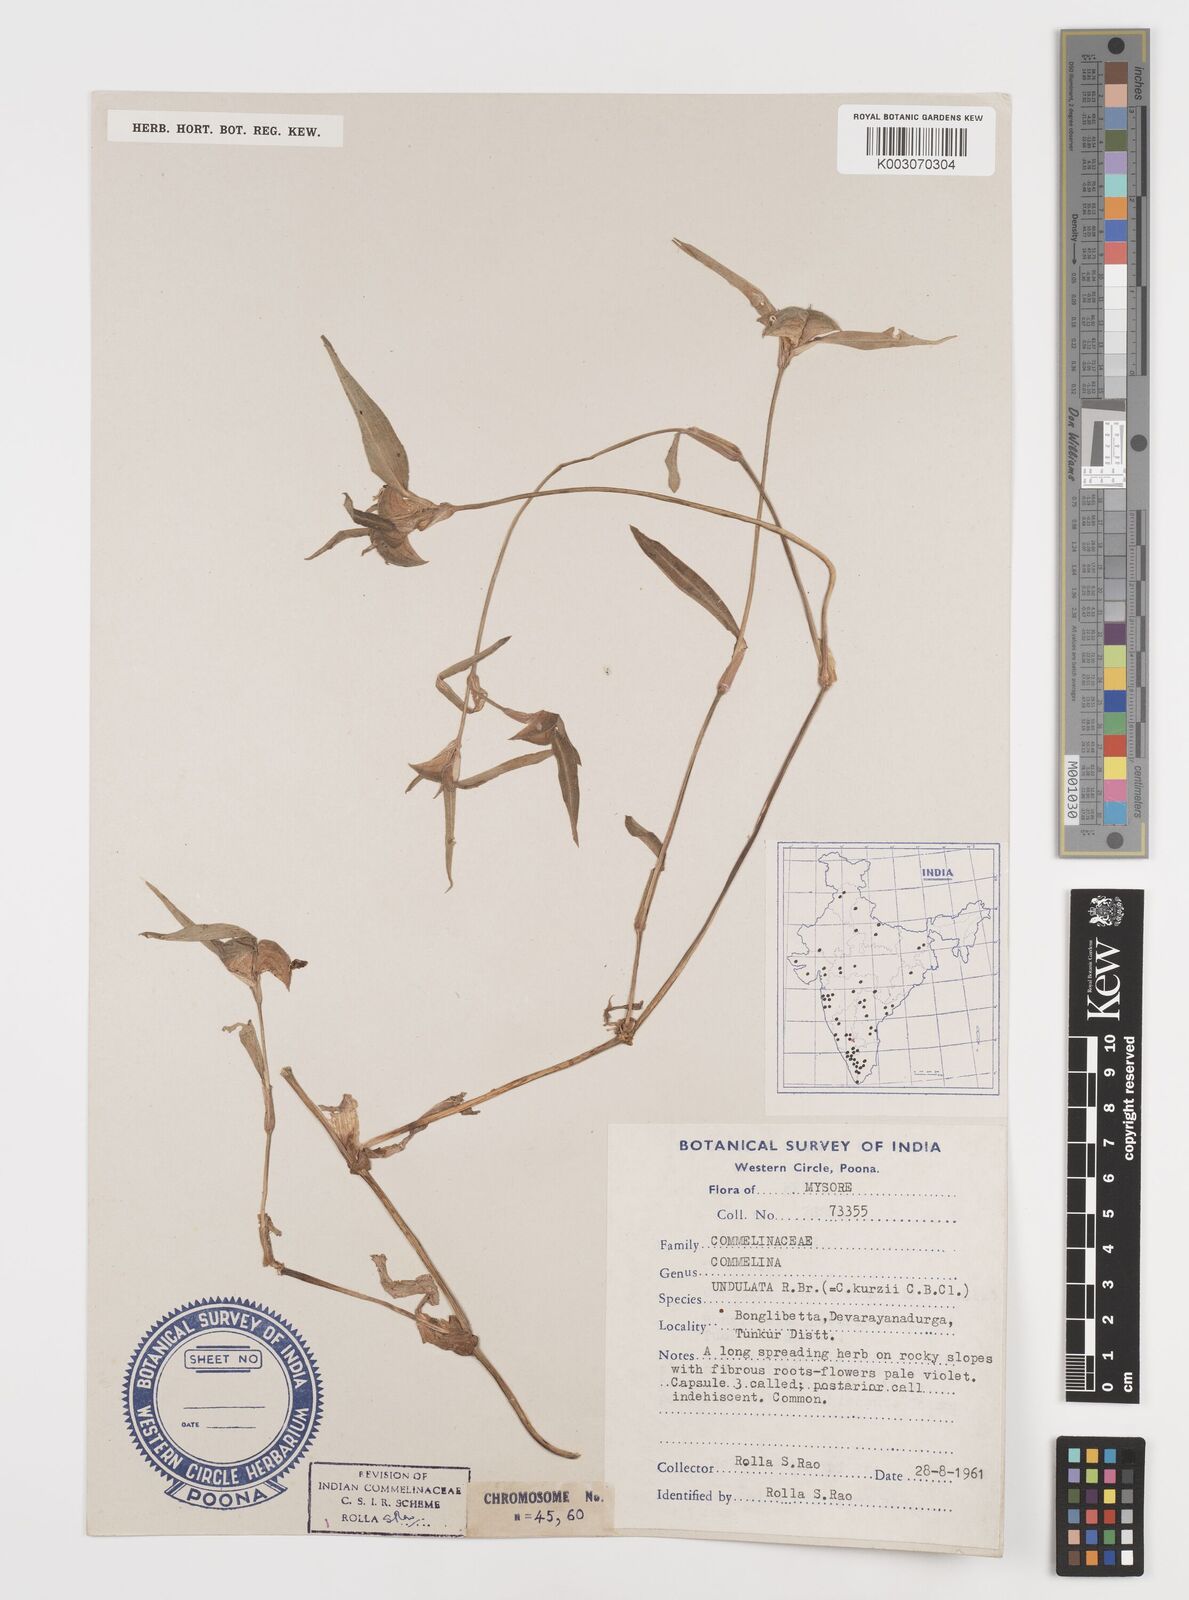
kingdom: Plantae
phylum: Tracheophyta
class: Liliopsida
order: Commelinales
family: Commelinaceae
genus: Commelina
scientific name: Commelina chamissonis
